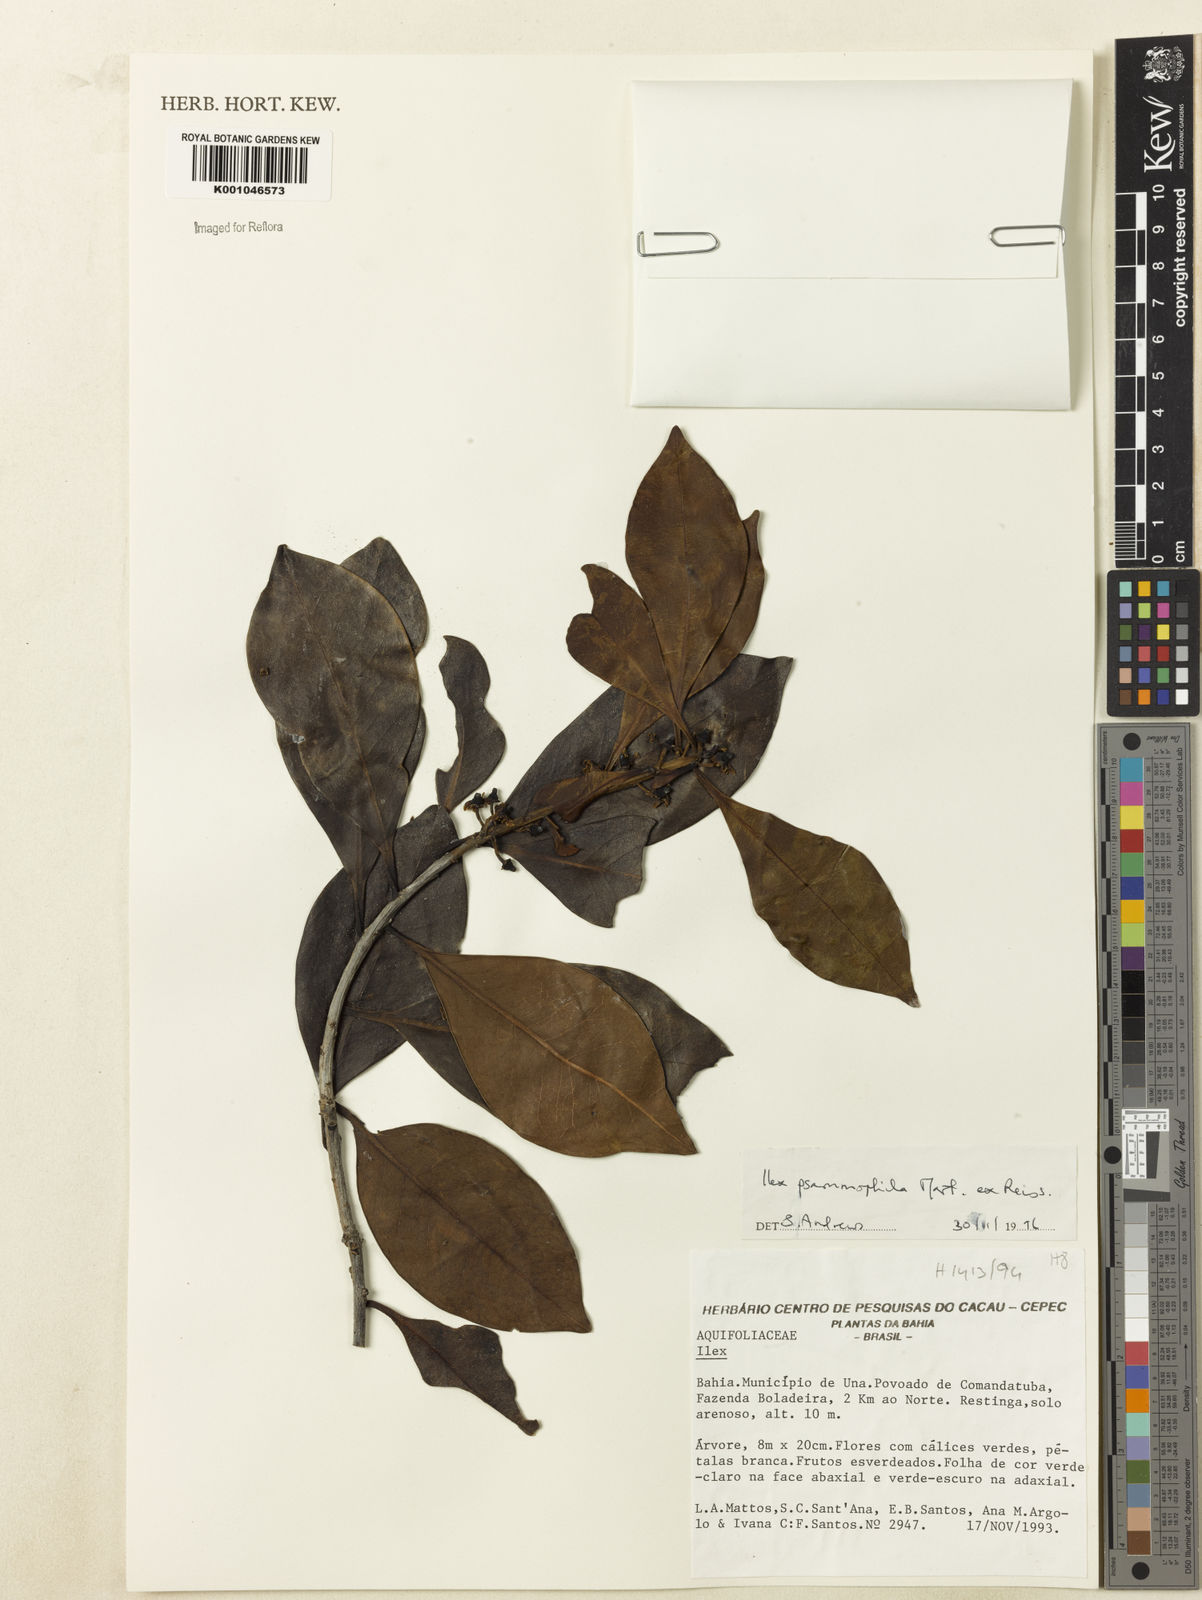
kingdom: Plantae
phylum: Tracheophyta
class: Magnoliopsida
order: Aquifoliales
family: Aquifoliaceae
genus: Ilex
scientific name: Ilex psammophila
